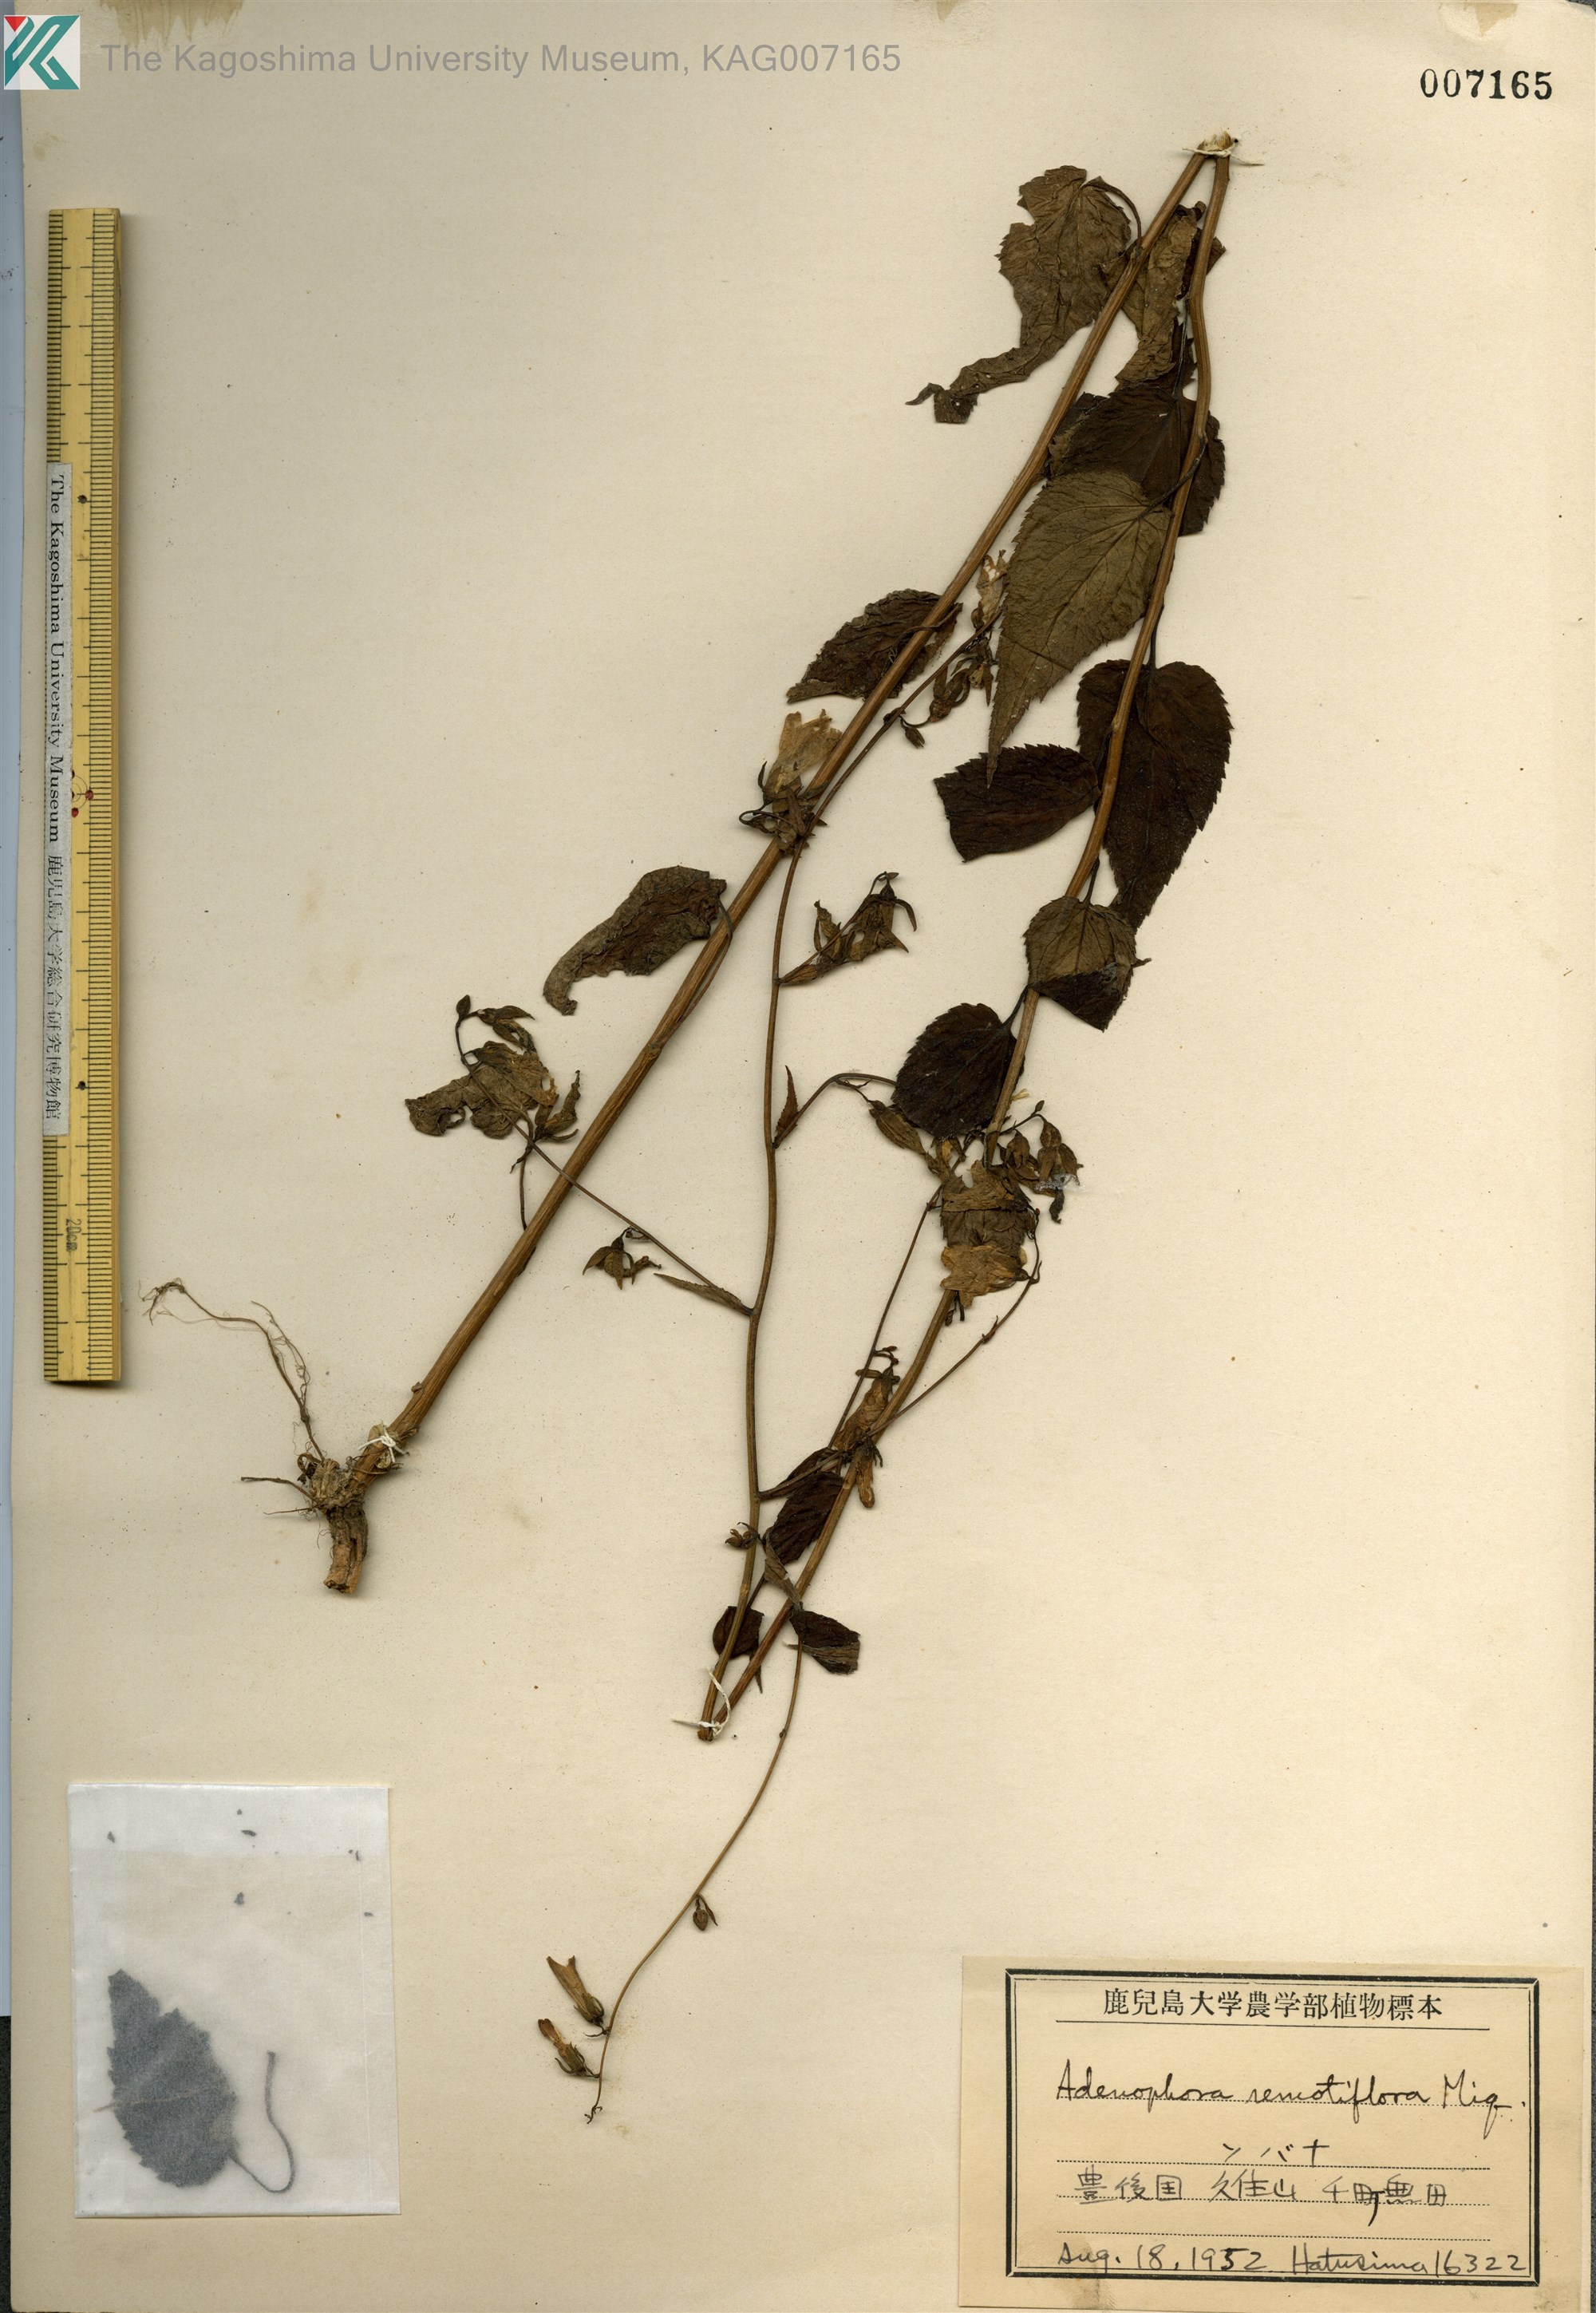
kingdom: Plantae
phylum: Tracheophyta
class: Magnoliopsida
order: Asterales
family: Campanulaceae
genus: Adenophora
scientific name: Adenophora remotiflora
